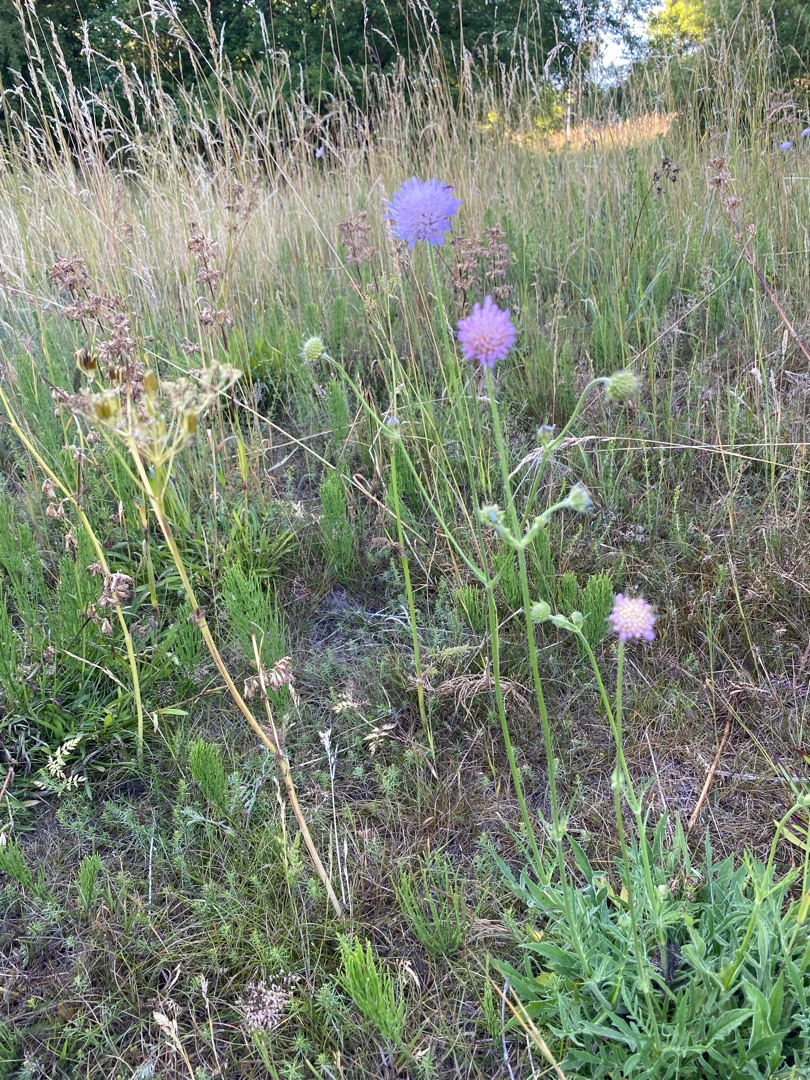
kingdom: Plantae
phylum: Tracheophyta
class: Magnoliopsida
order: Dipsacales
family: Caprifoliaceae
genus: Knautia
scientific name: Knautia arvensis
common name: Blåhat
